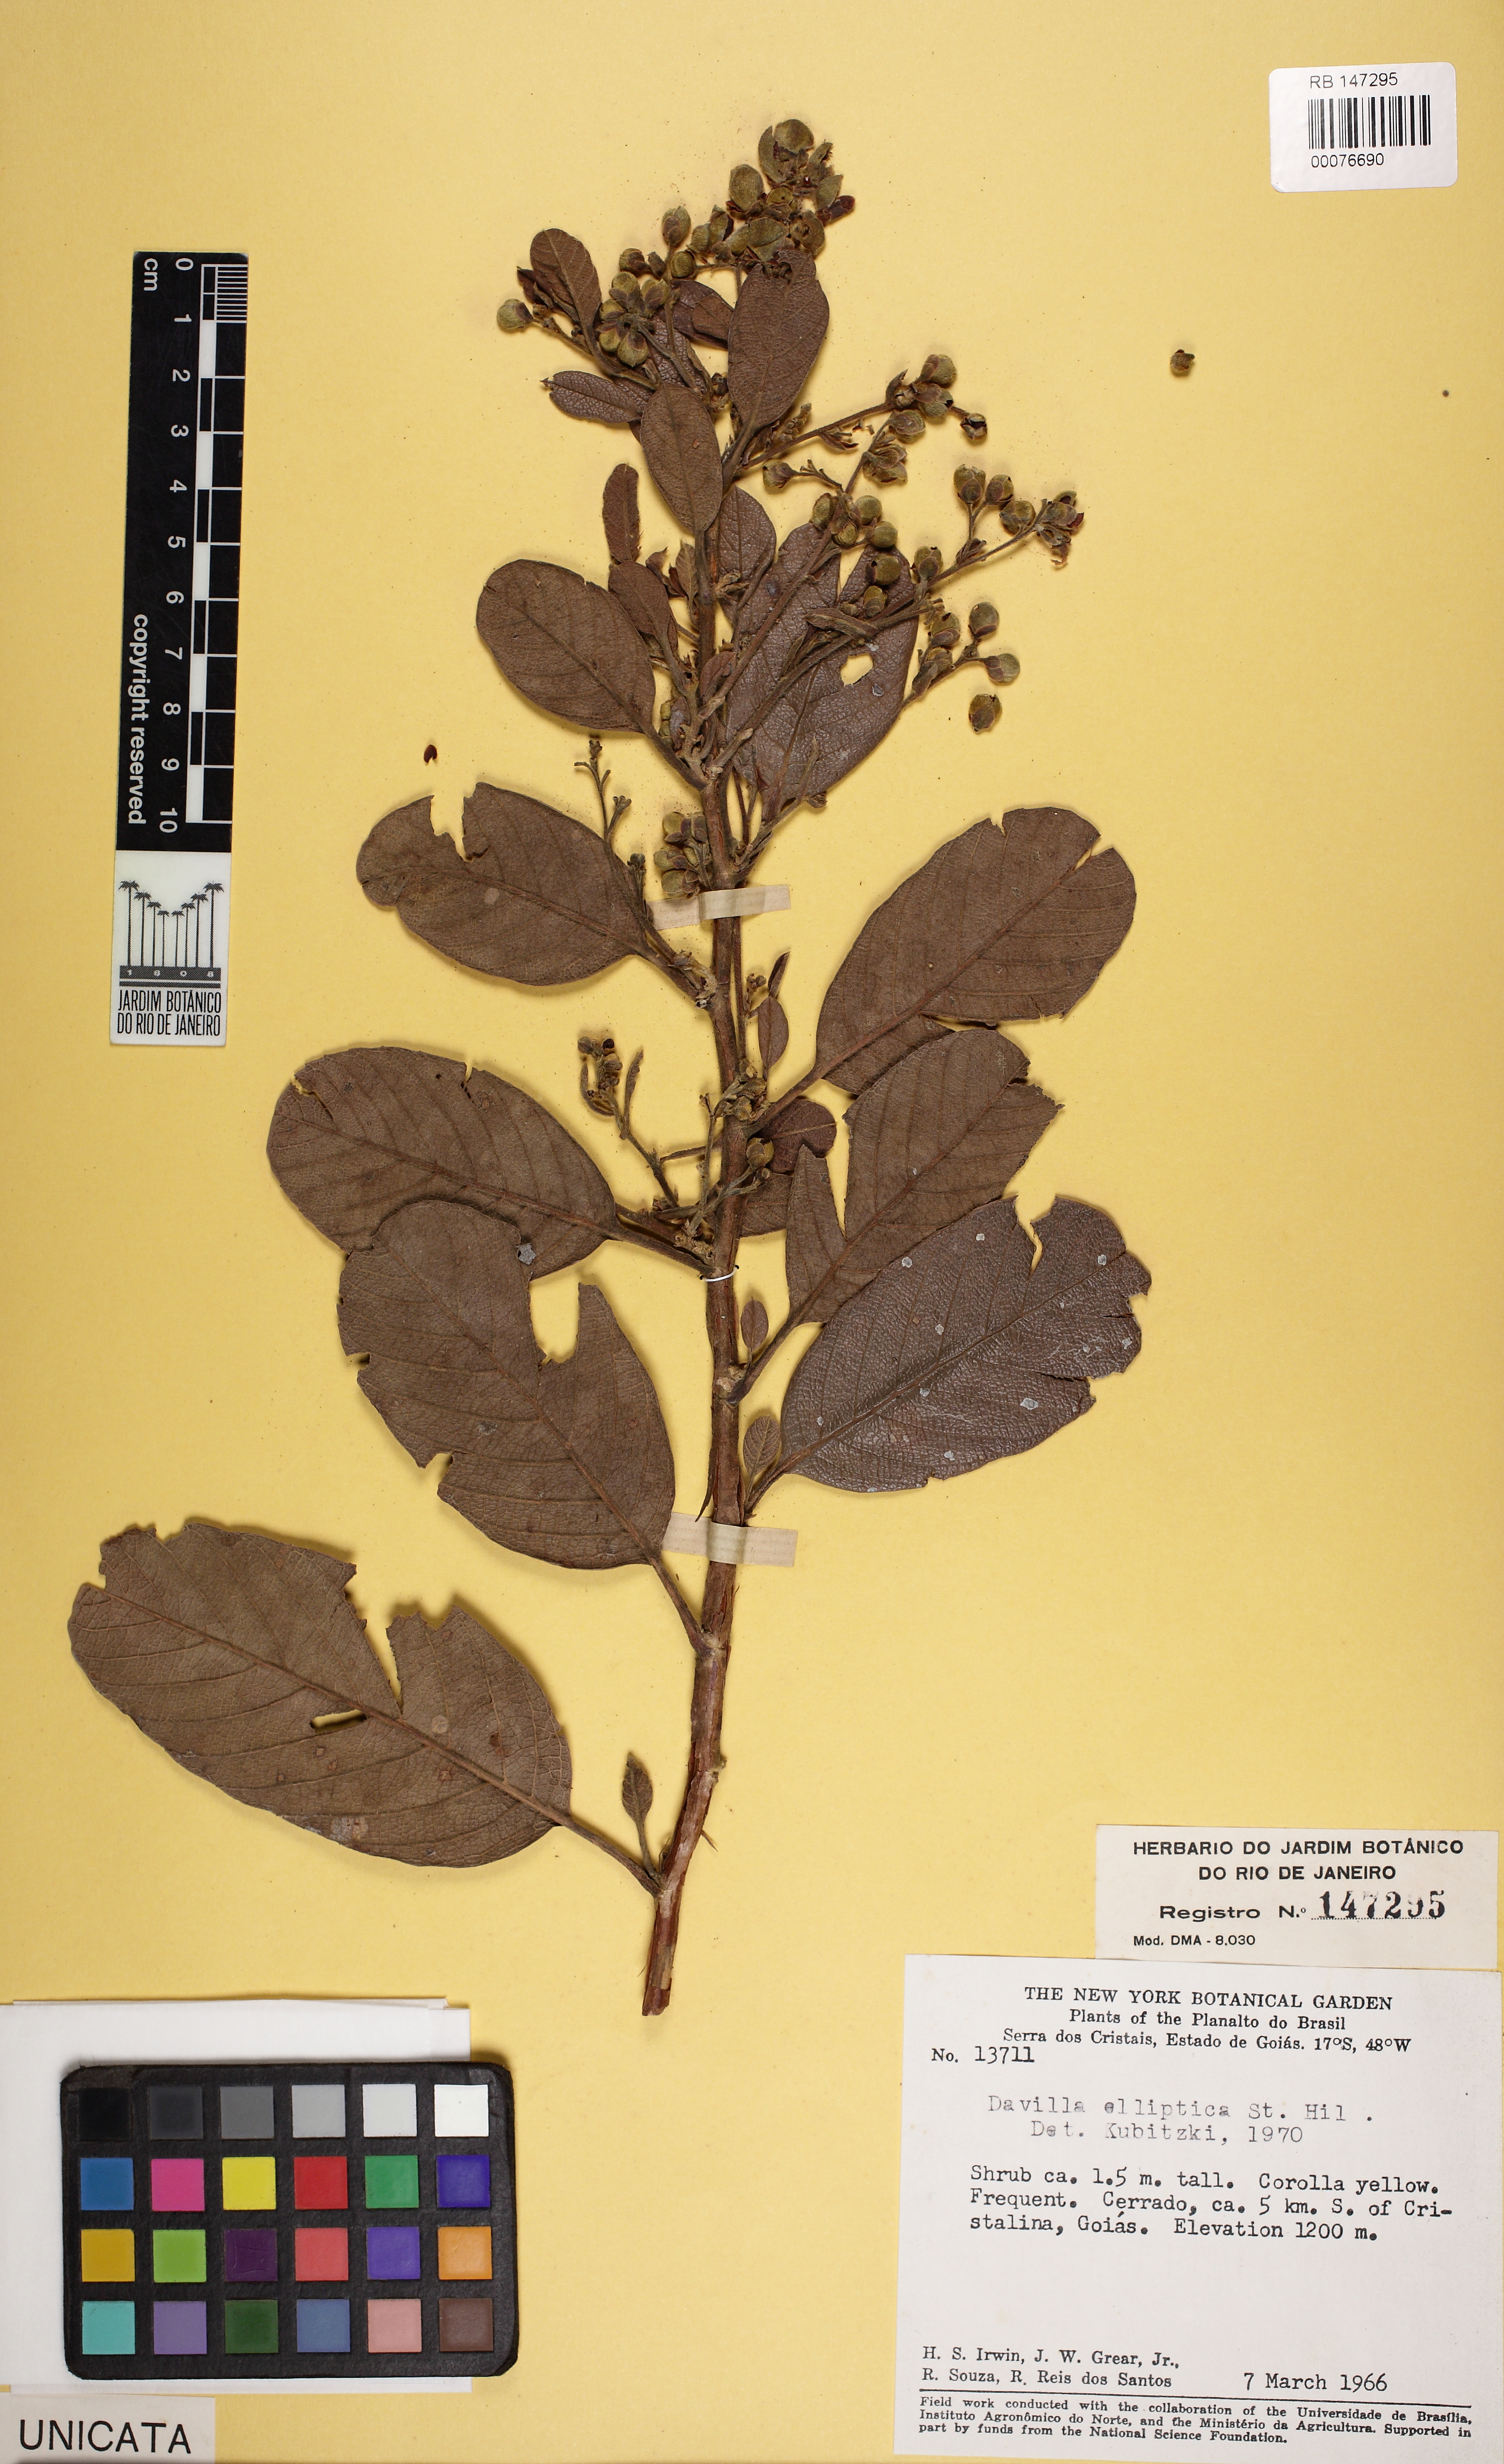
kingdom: Plantae
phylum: Tracheophyta
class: Magnoliopsida
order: Dilleniales
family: Dilleniaceae
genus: Davilla
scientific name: Davilla elliptica
